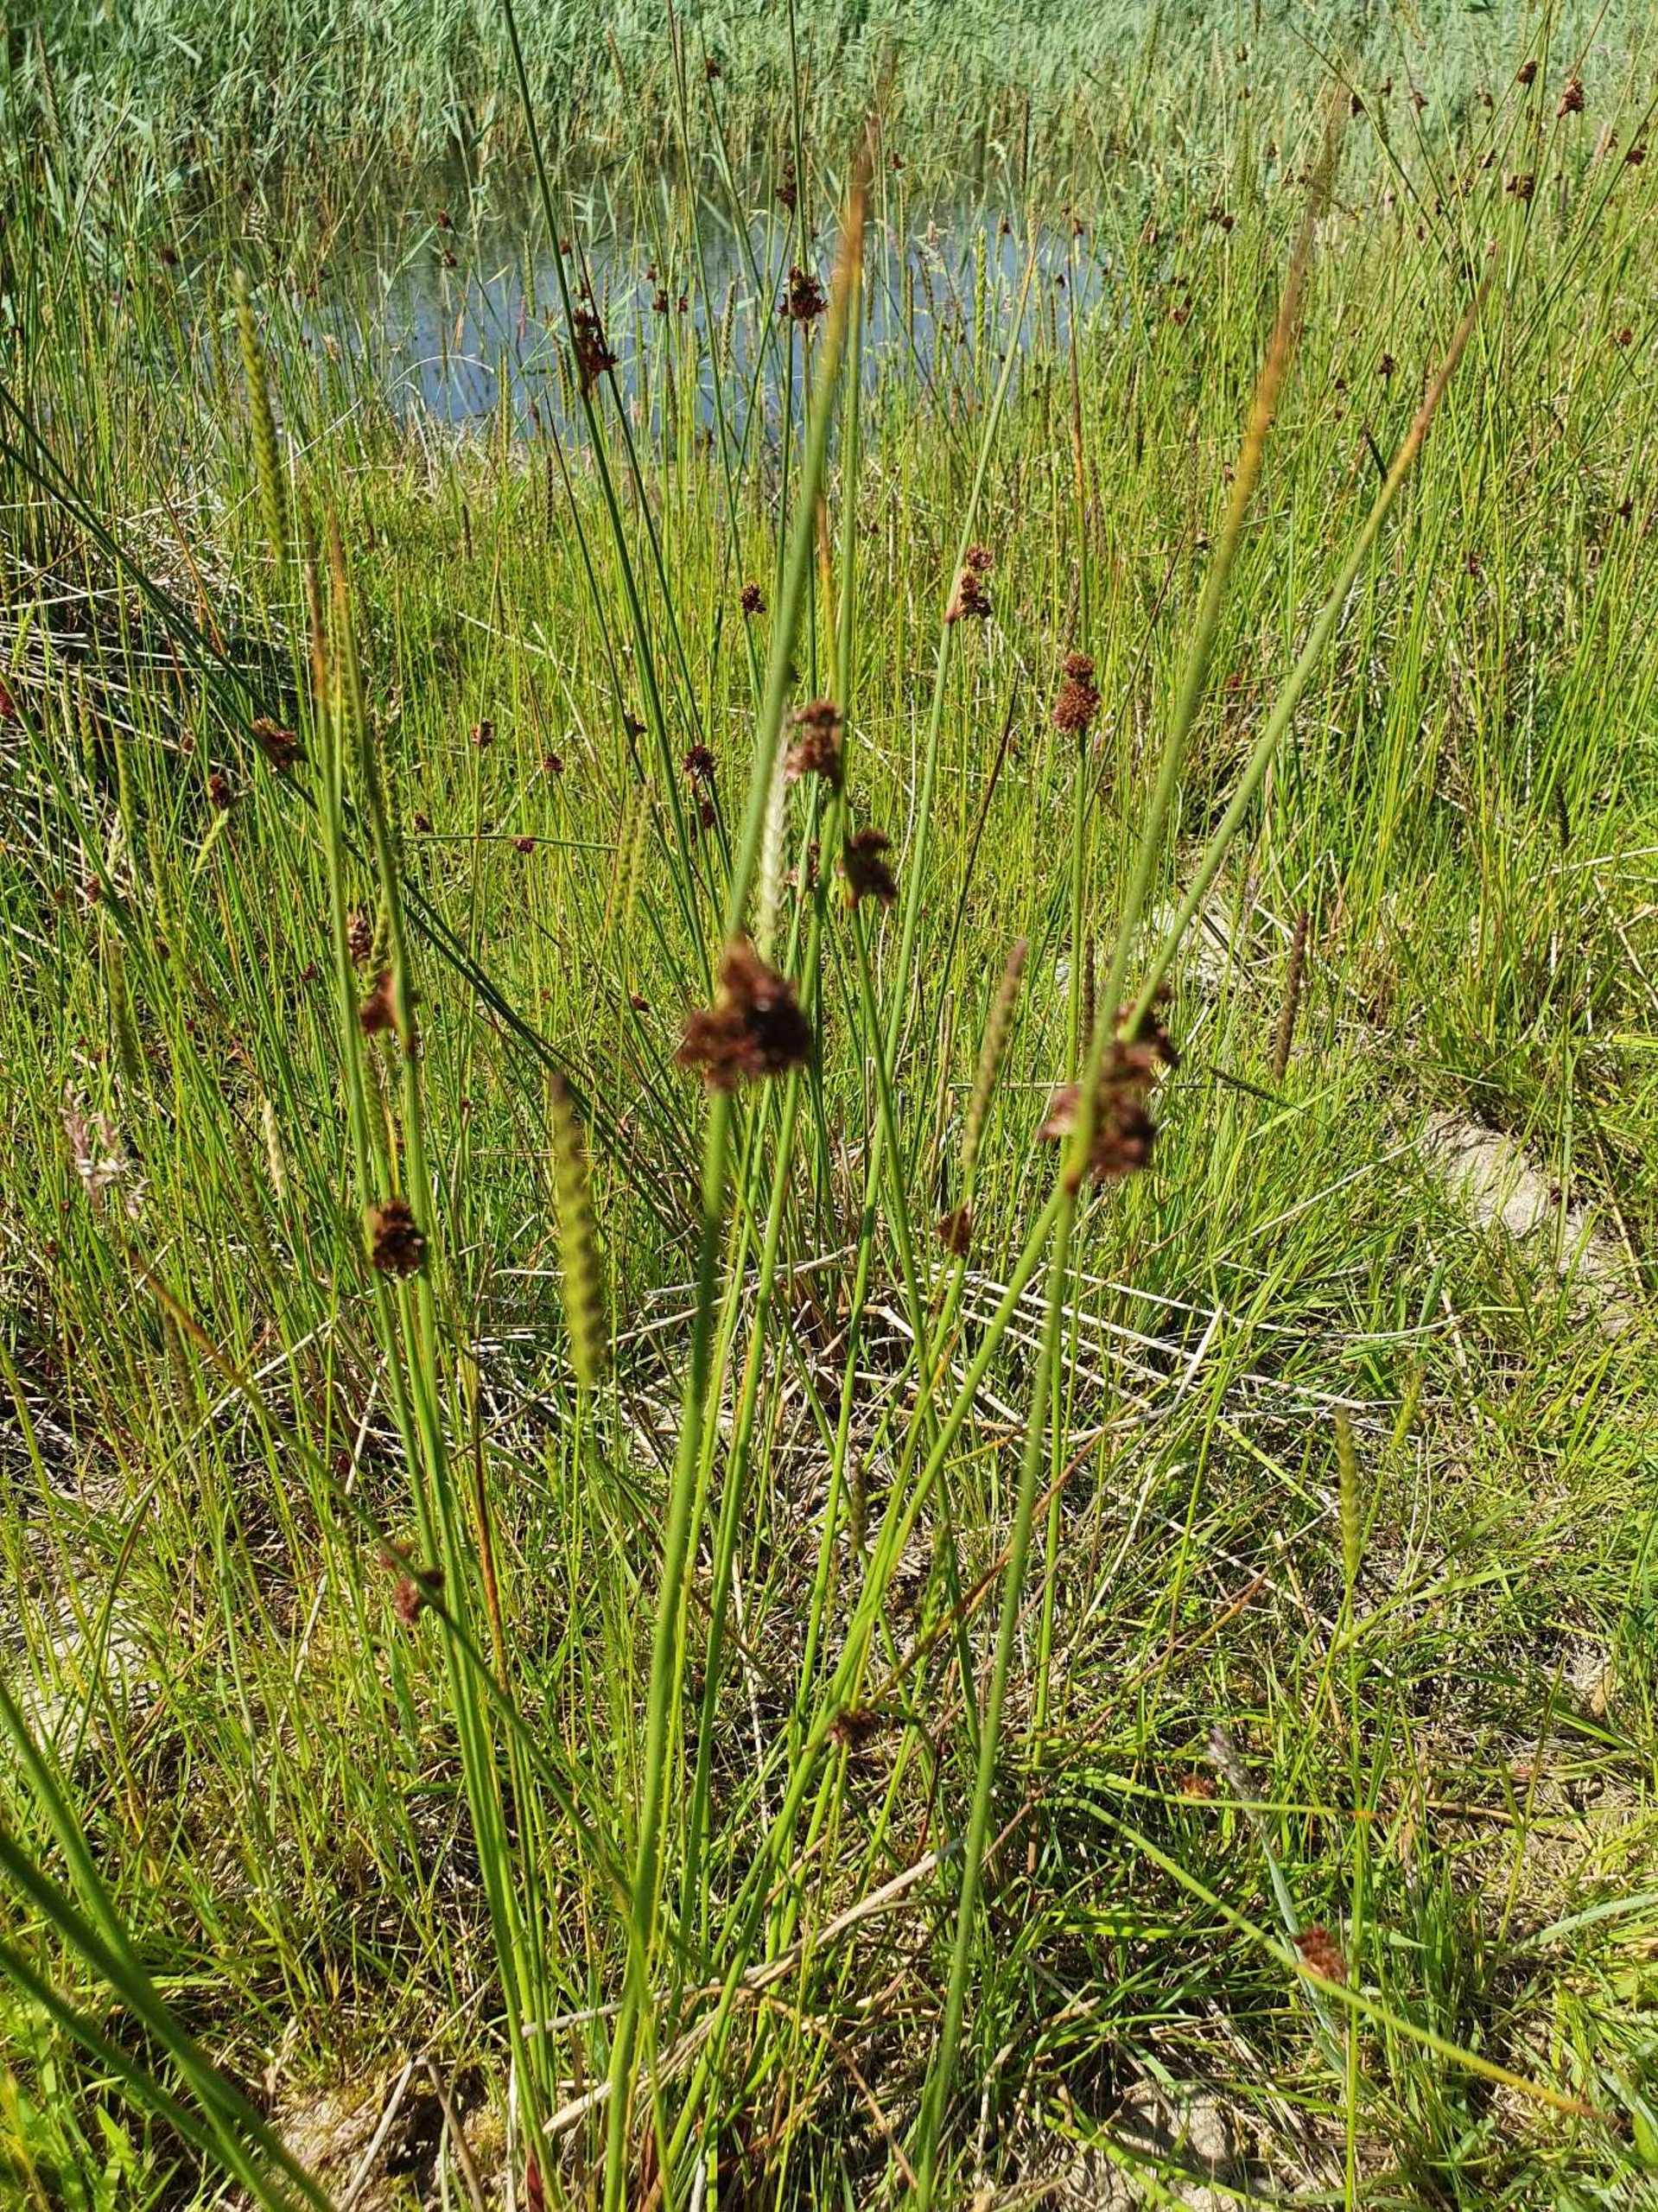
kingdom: Plantae
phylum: Tracheophyta
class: Liliopsida
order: Poales
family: Juncaceae
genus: Juncus
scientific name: Juncus conglomeratus
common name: Knop-siv
